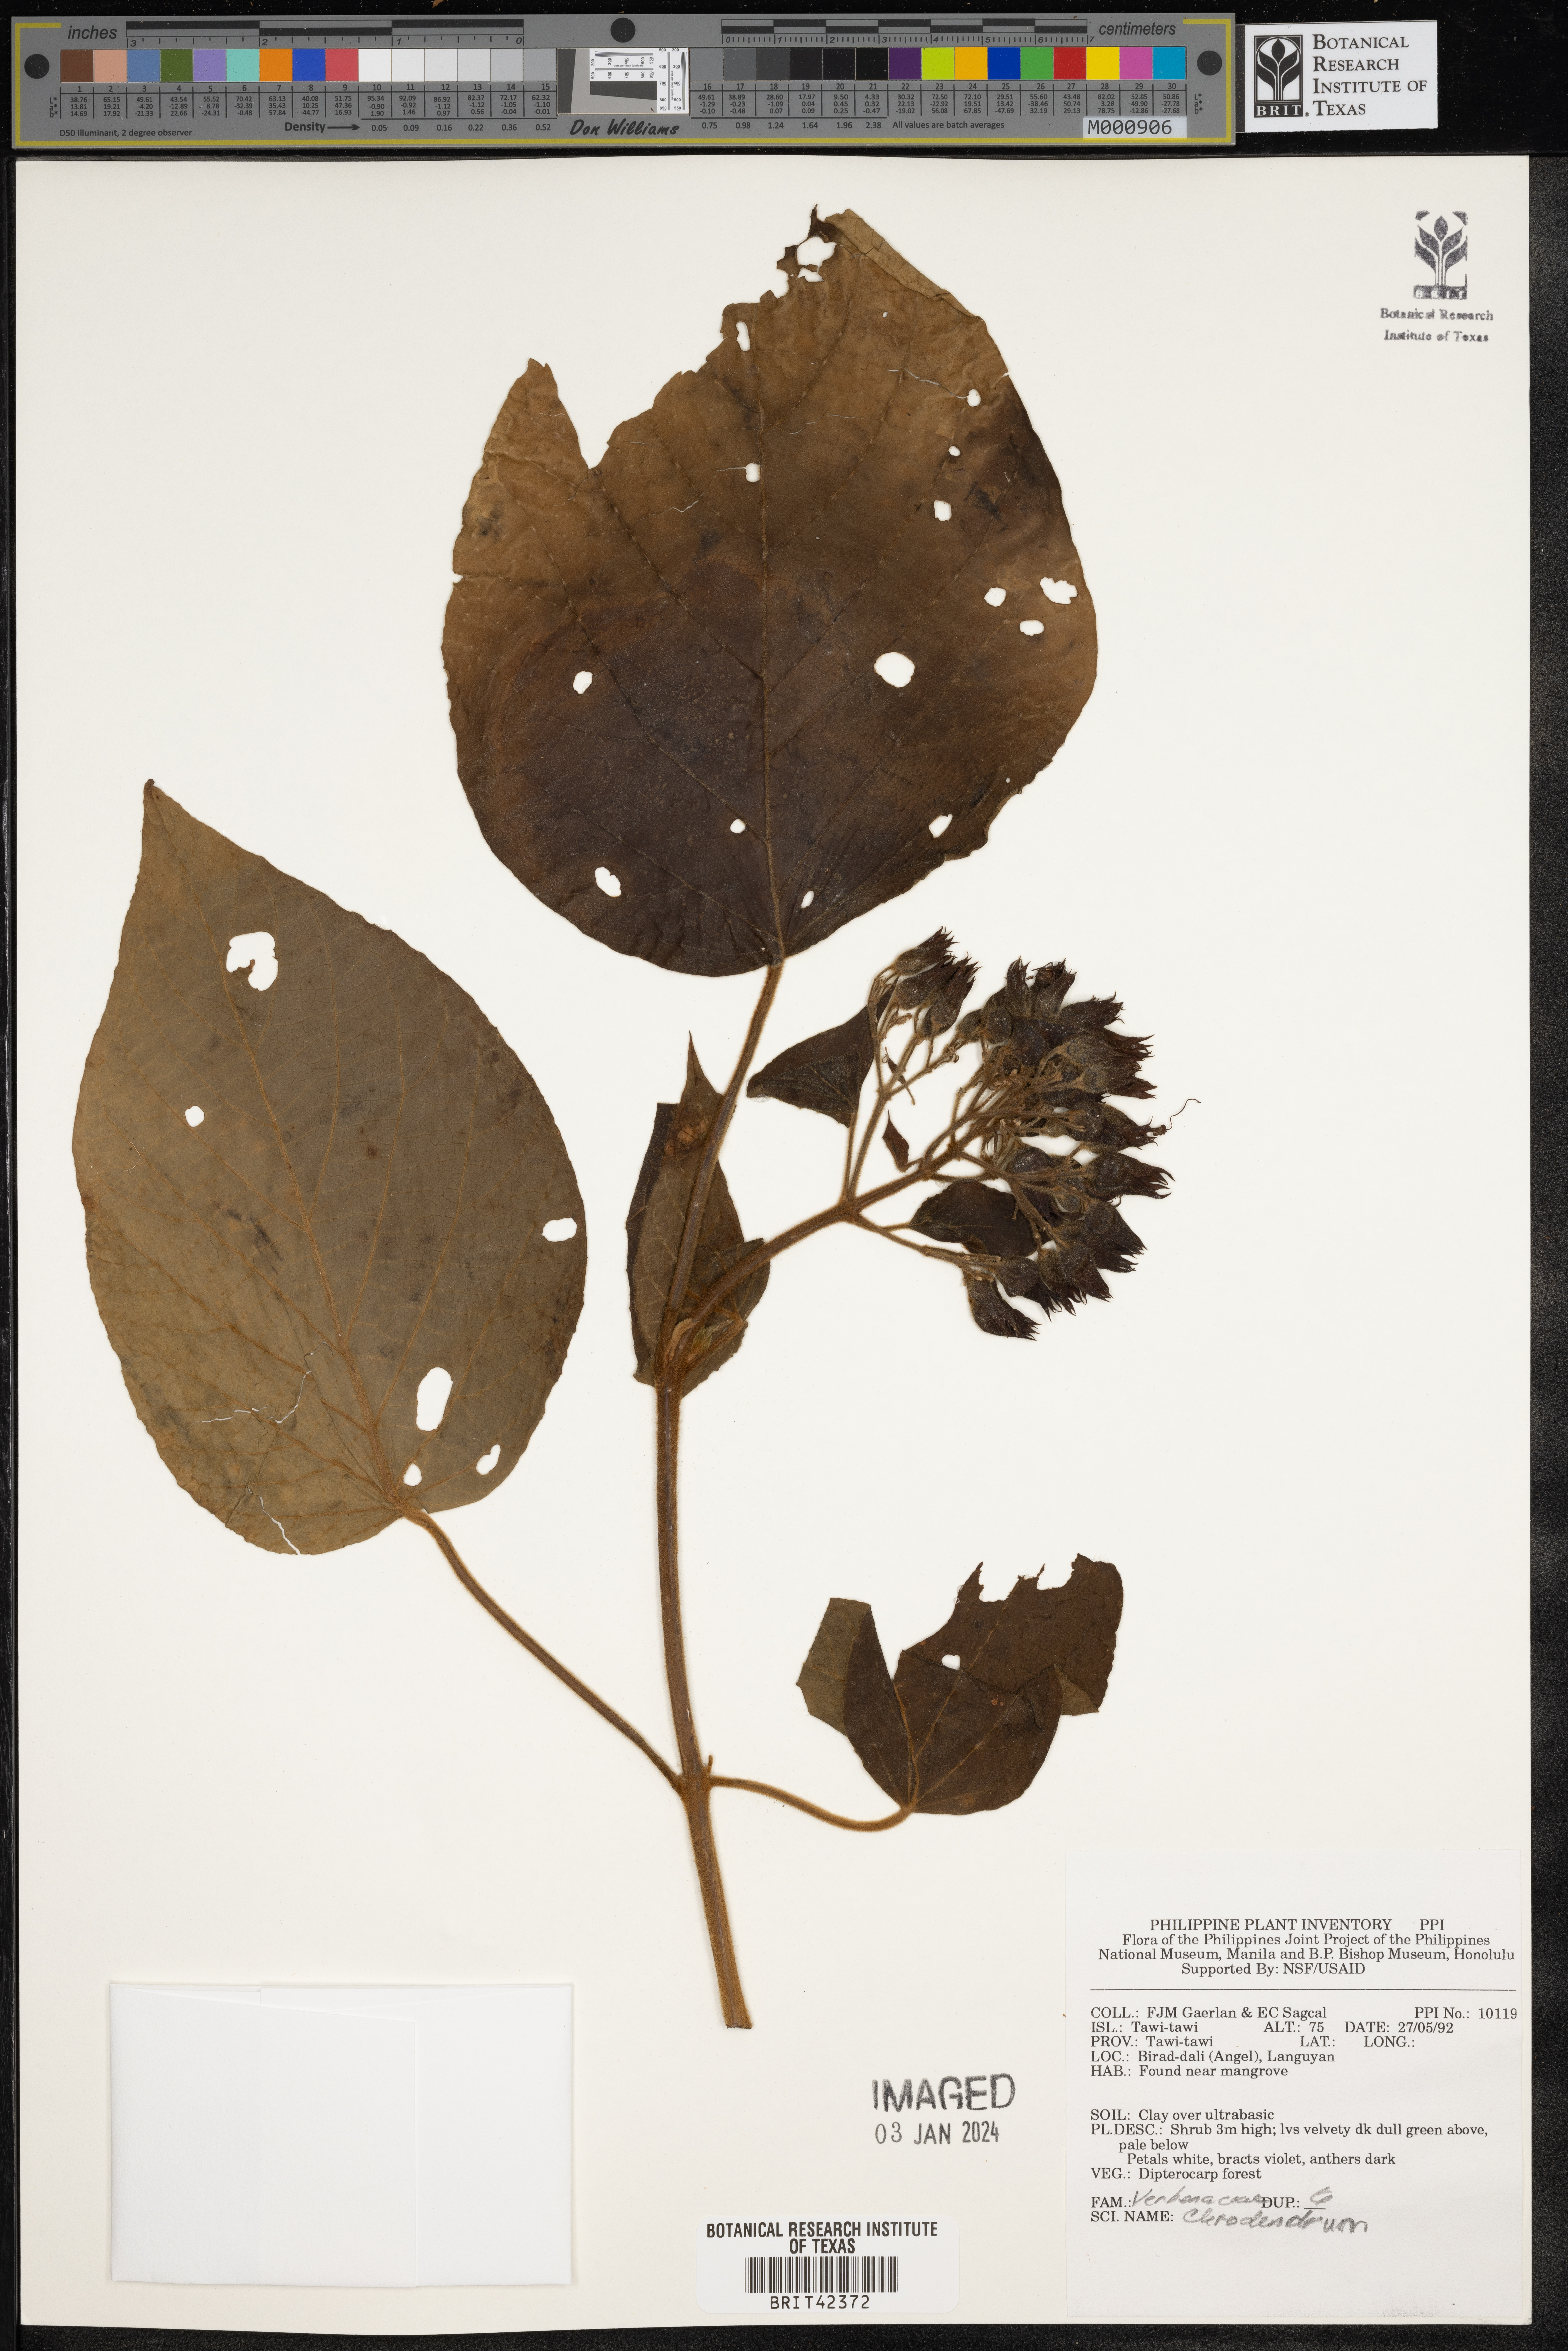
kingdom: Plantae
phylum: Tracheophyta
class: Magnoliopsida
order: Lamiales
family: Lamiaceae
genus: Clerodendrum
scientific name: Clerodendrum
